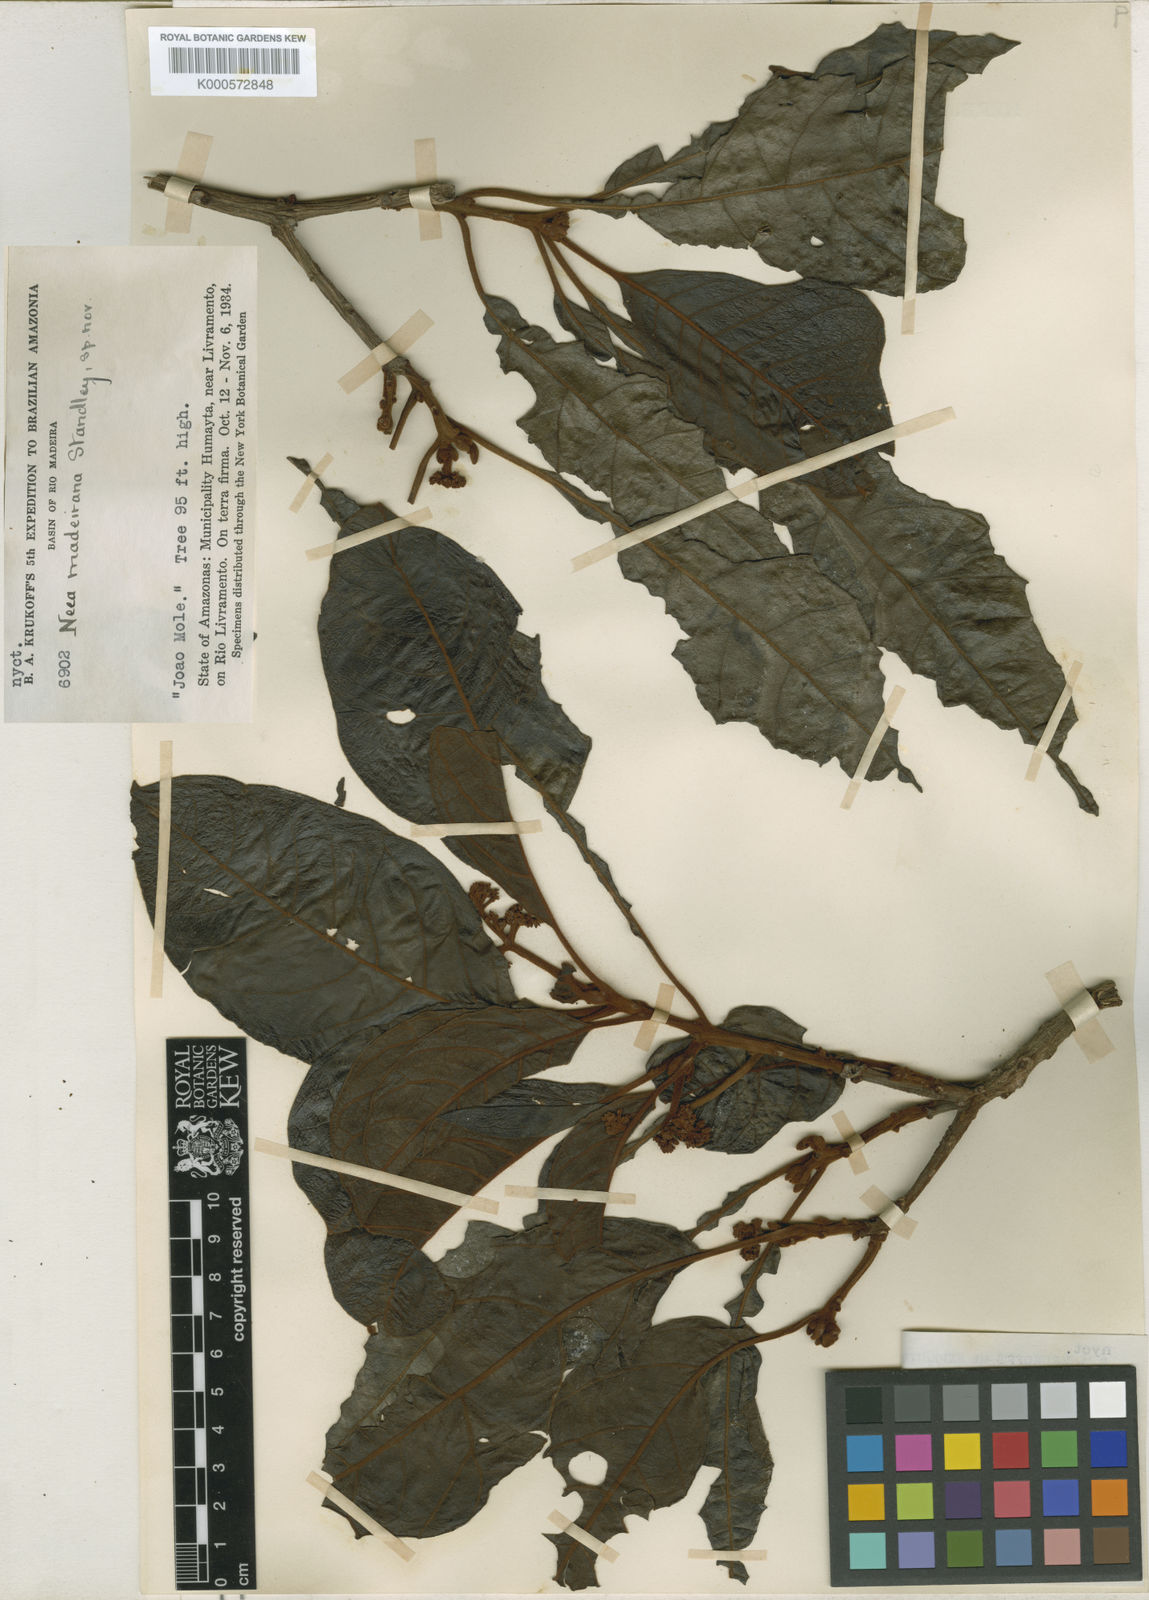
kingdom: Plantae
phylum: Tracheophyta
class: Magnoliopsida
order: Caryophyllales
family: Nyctaginaceae
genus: Neea
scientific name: Neea madeirana
